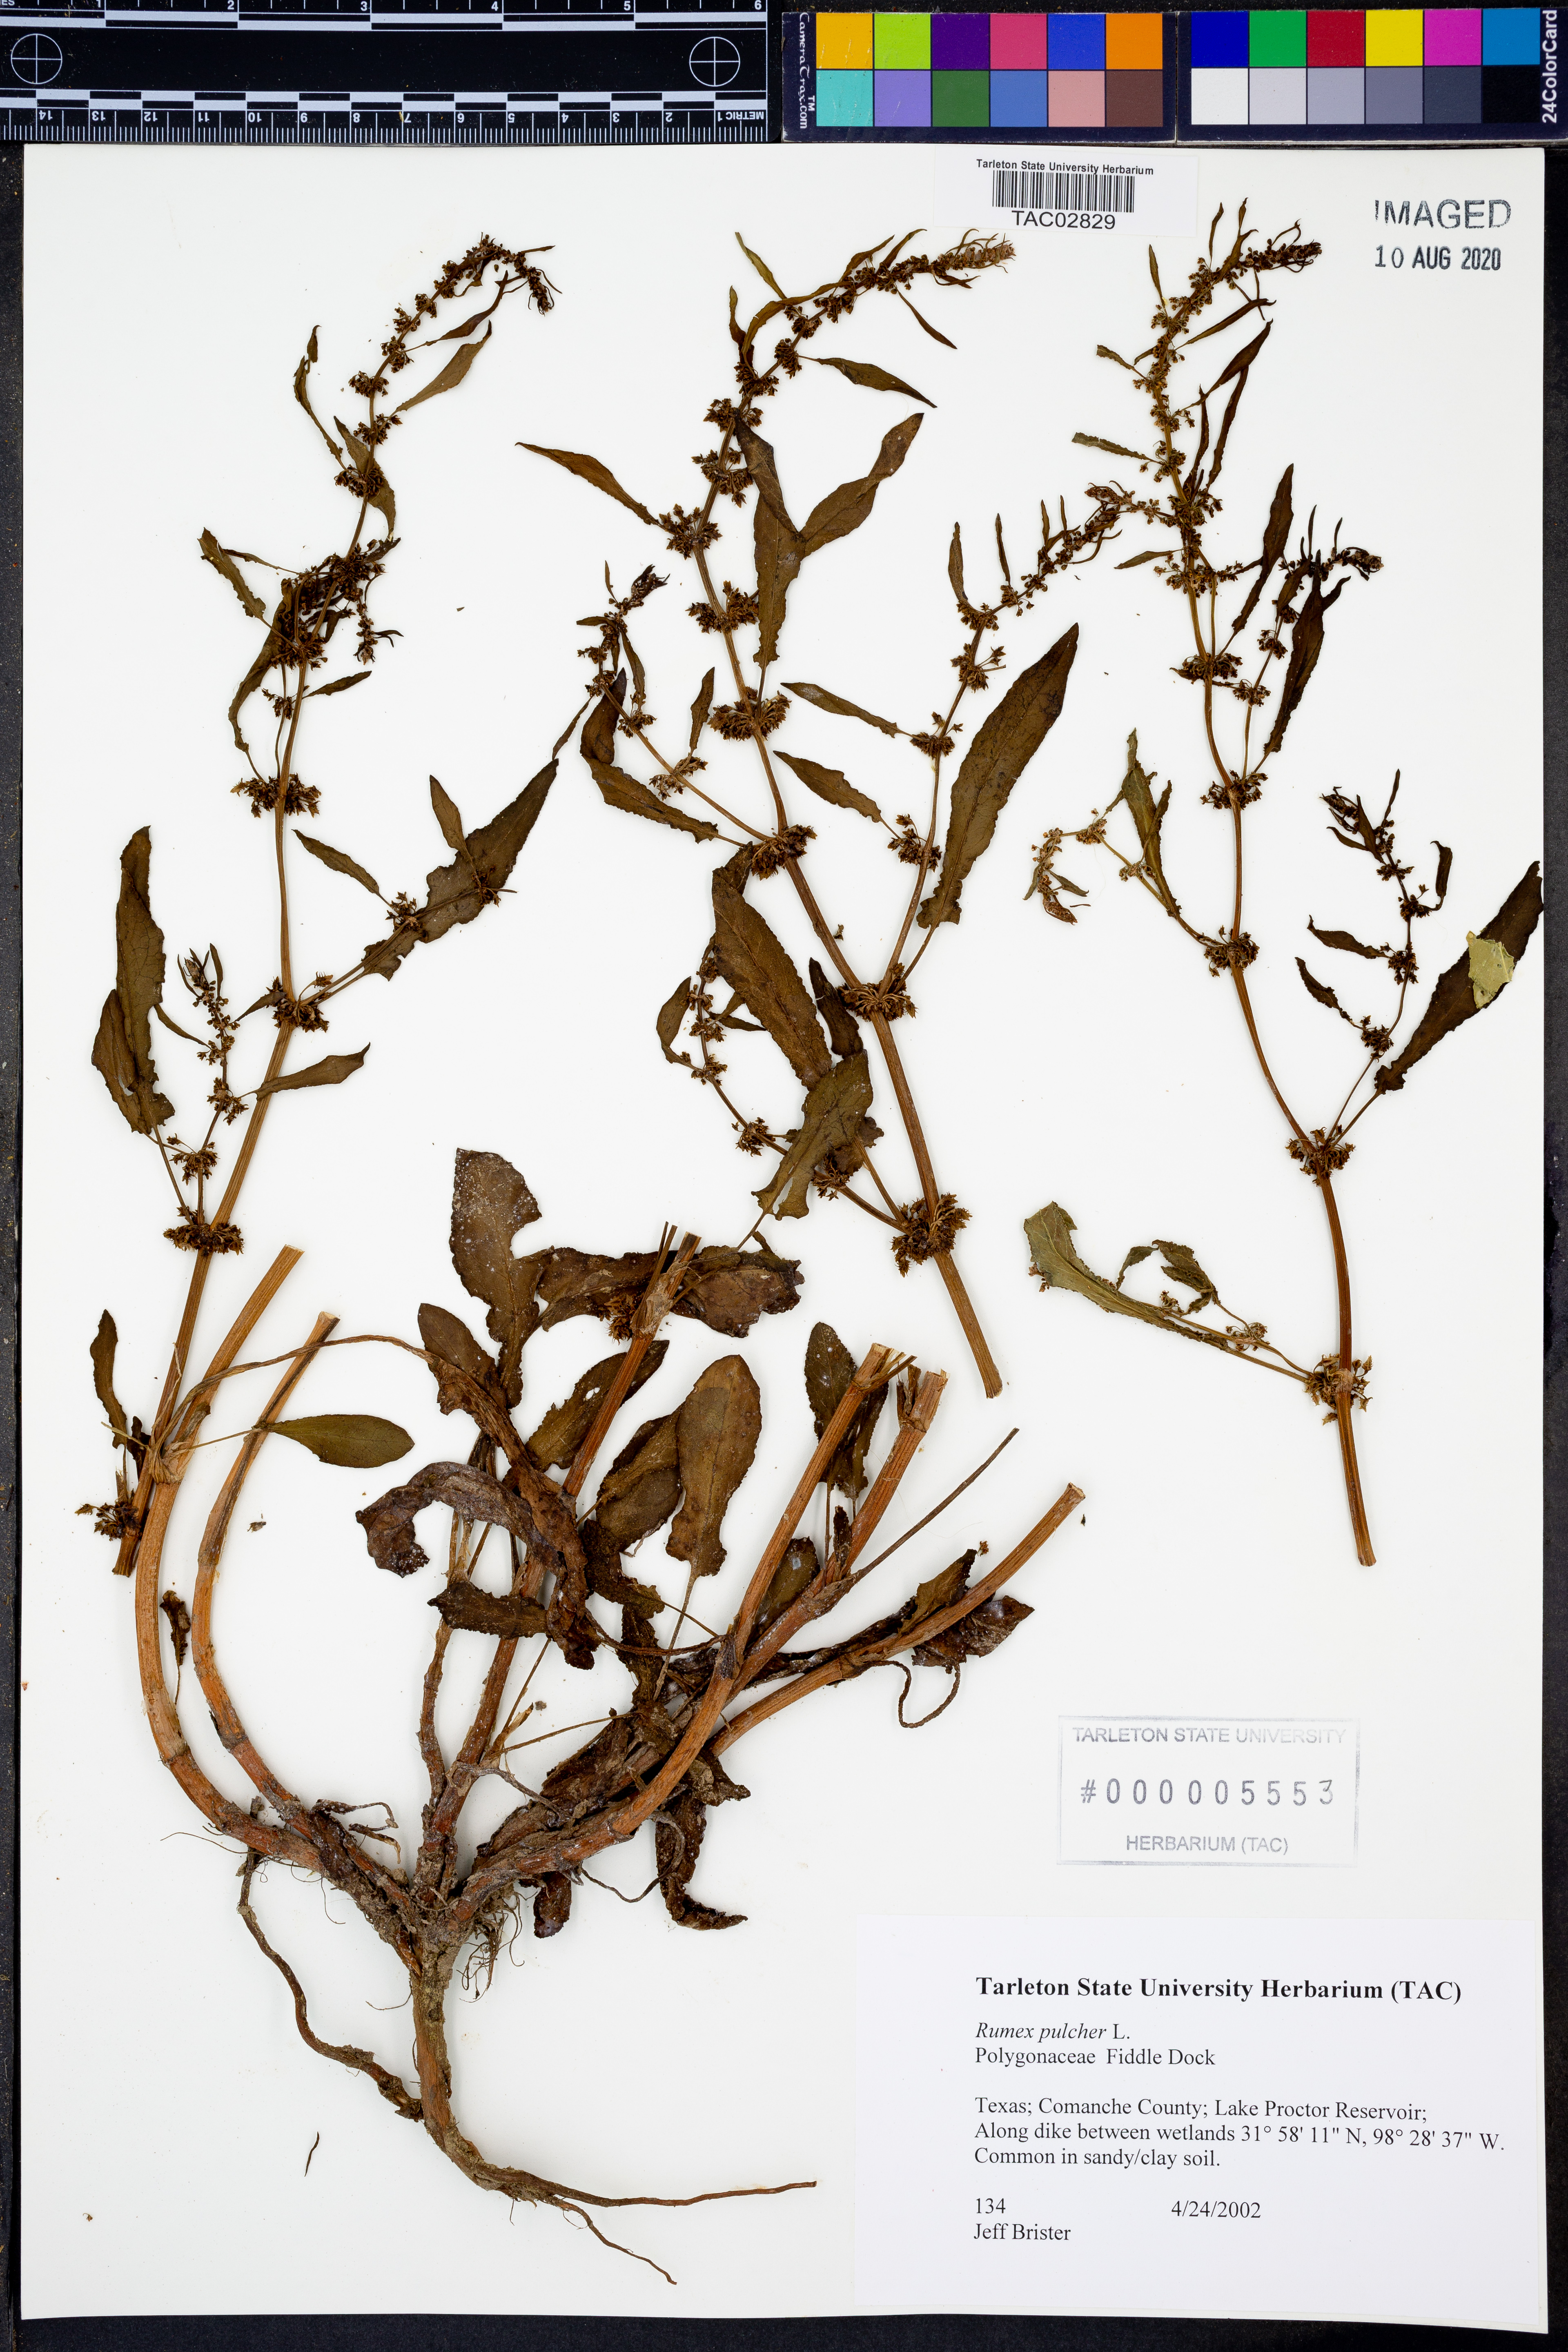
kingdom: Plantae
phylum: Tracheophyta
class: Magnoliopsida
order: Caryophyllales
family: Polygonaceae
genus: Rumex
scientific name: Rumex pulcher
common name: Fiddle dock
